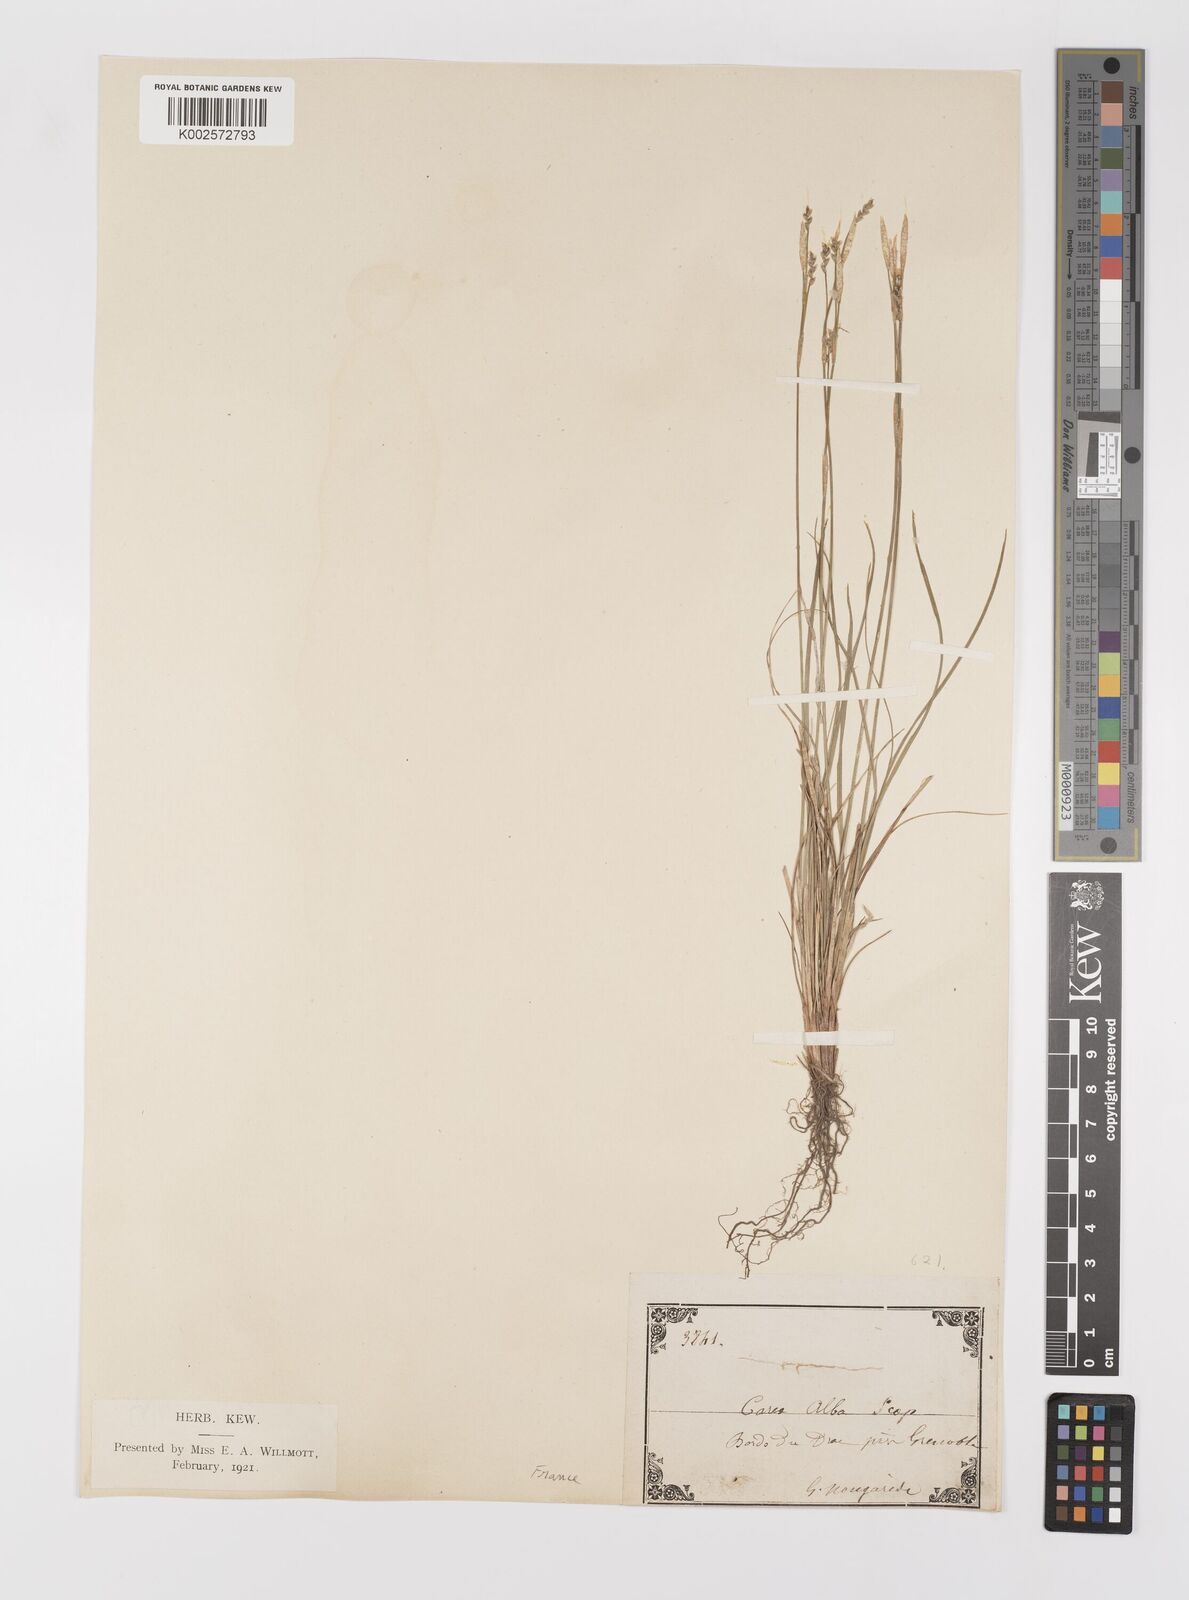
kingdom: Plantae
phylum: Tracheophyta
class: Liliopsida
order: Poales
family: Cyperaceae
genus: Carex
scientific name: Carex alba
